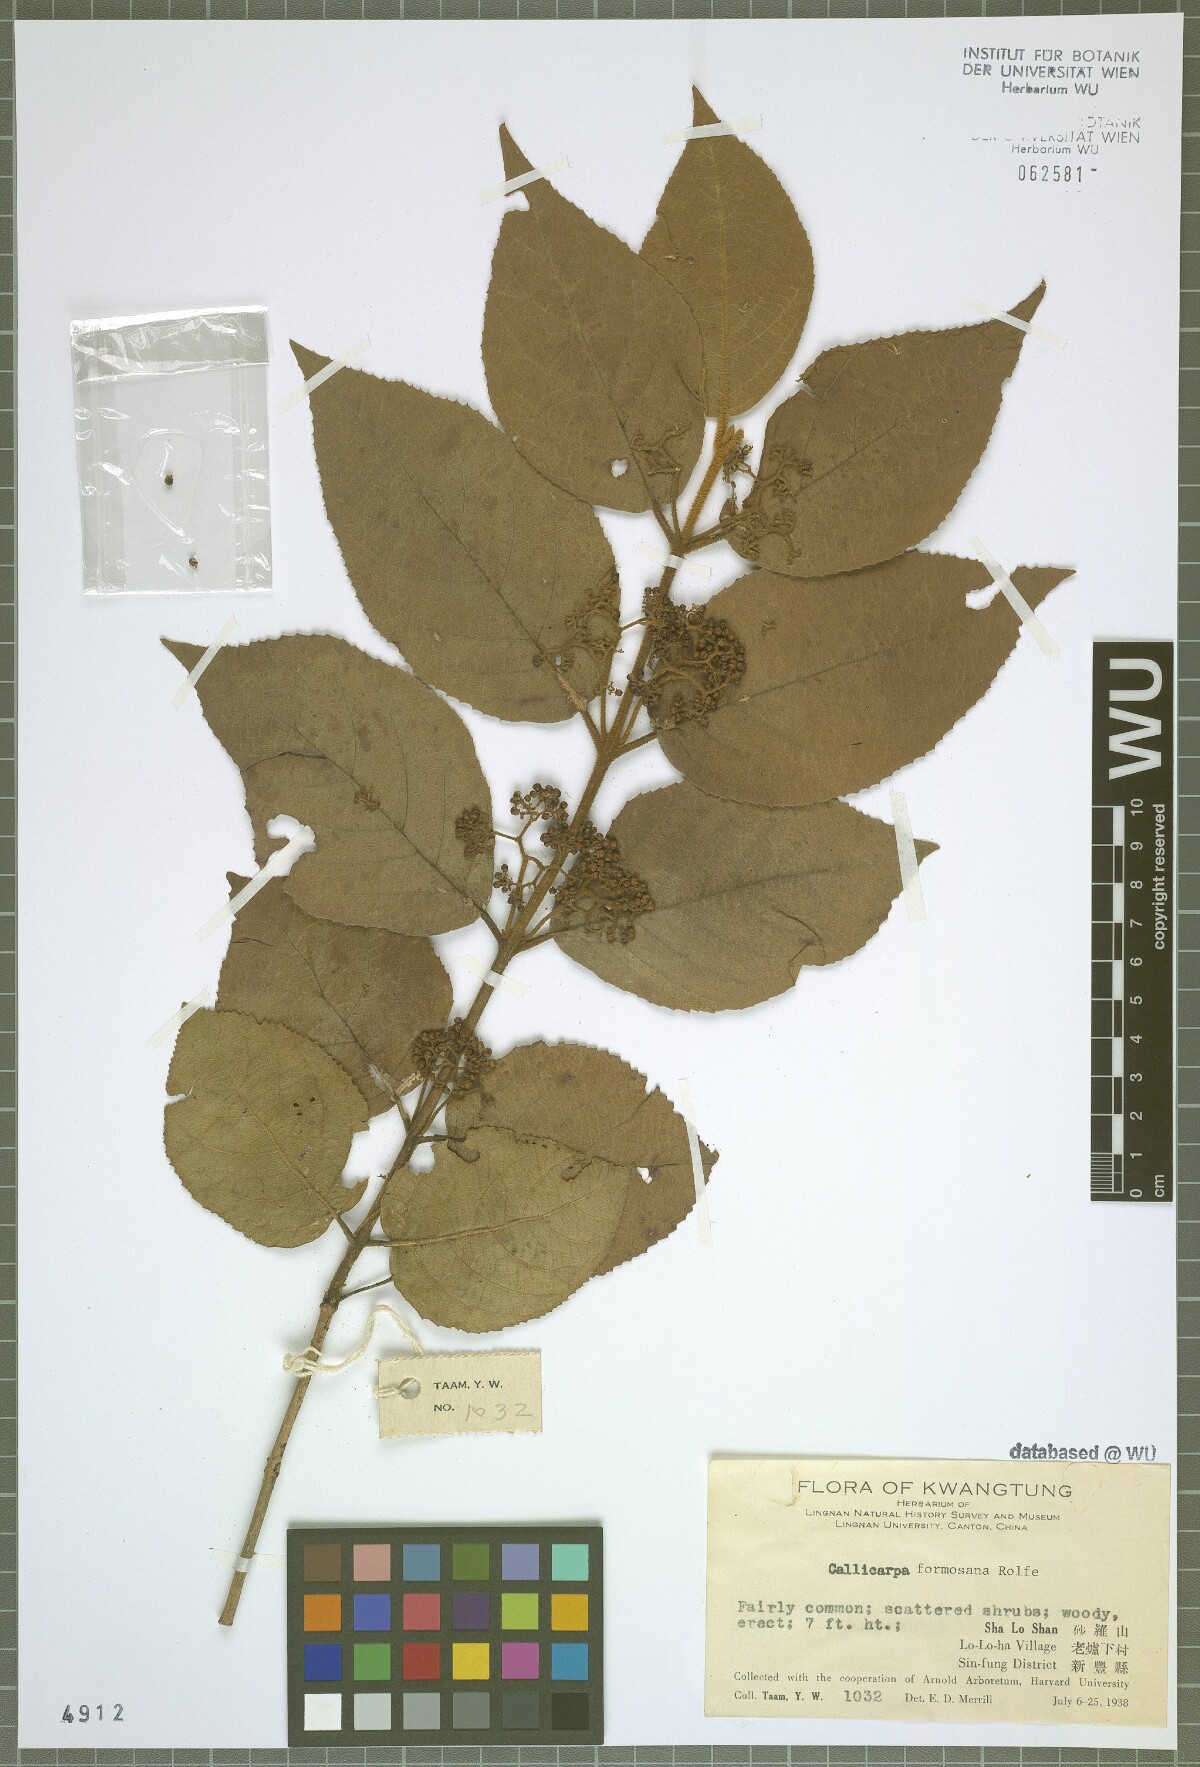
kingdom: Plantae
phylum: Tracheophyta
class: Magnoliopsida
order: Lamiales
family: Lamiaceae
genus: Callicarpa
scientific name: Callicarpa pedunculata
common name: Velvetleaf
